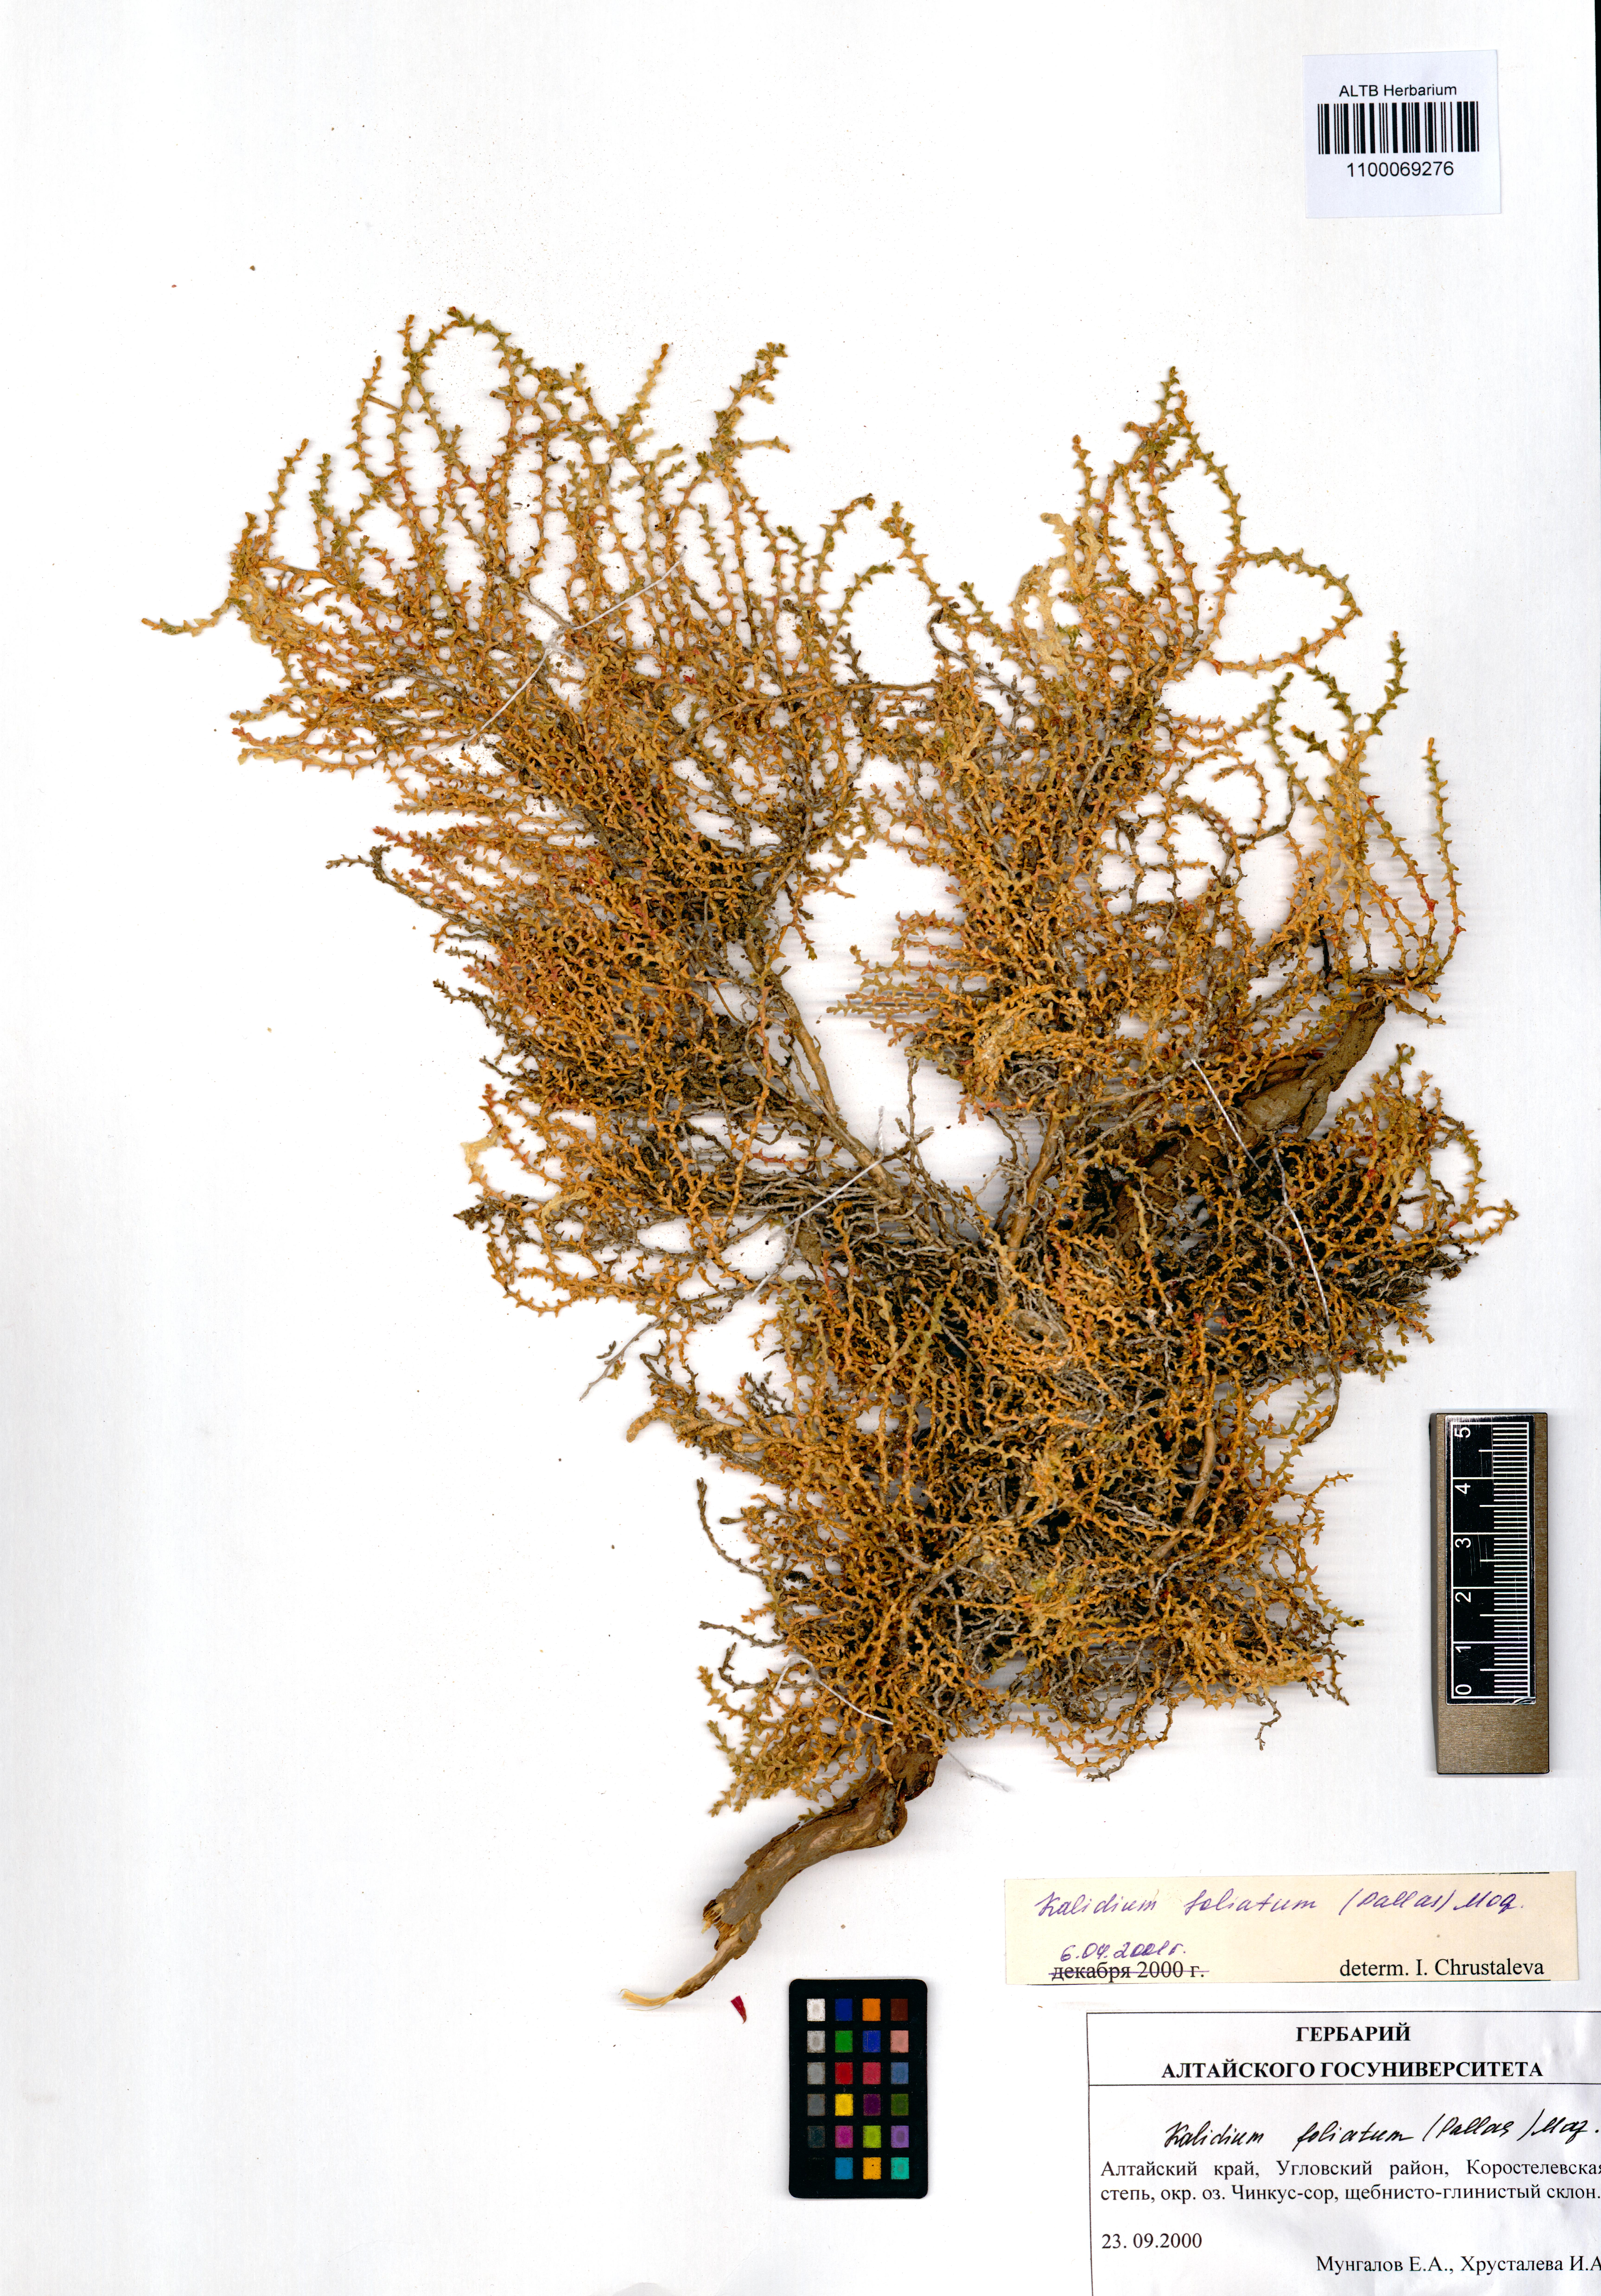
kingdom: Plantae
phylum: Tracheophyta
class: Magnoliopsida
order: Caryophyllales
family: Amaranthaceae
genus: Kalidium
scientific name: Kalidium foliatum
